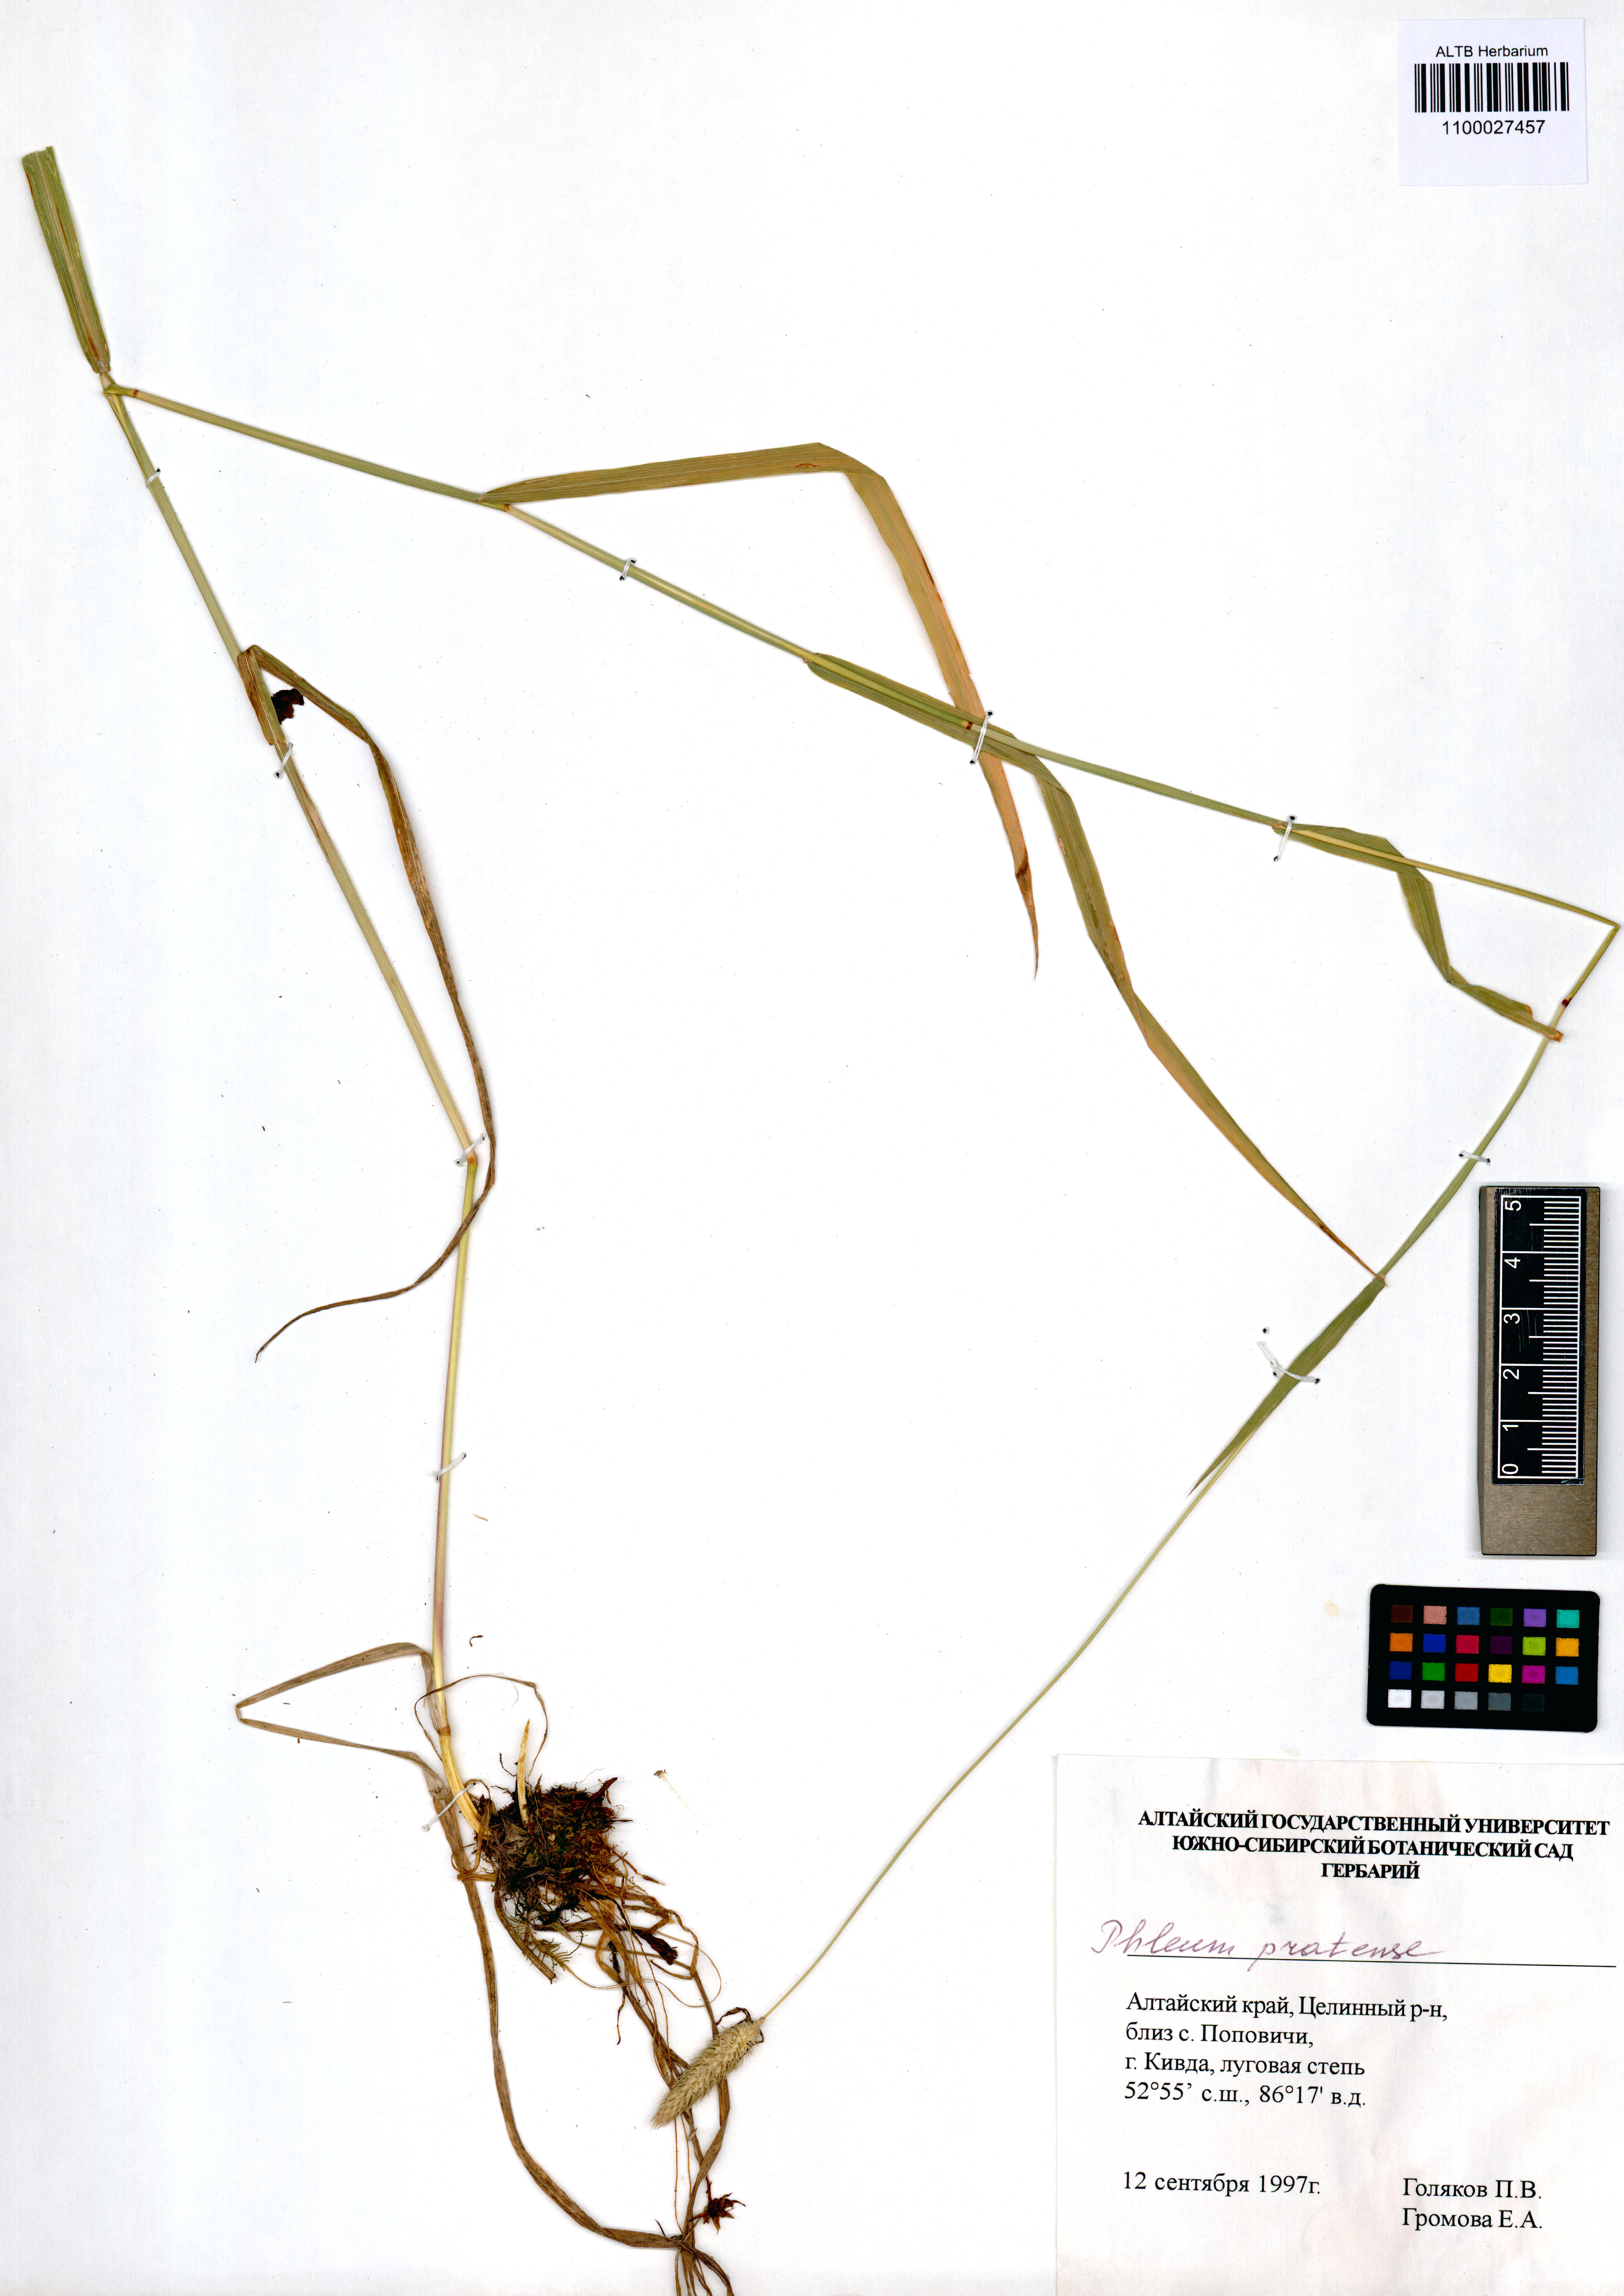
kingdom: Plantae
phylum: Tracheophyta
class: Liliopsida
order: Poales
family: Poaceae
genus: Phleum
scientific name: Phleum pratense
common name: Timothy grass
